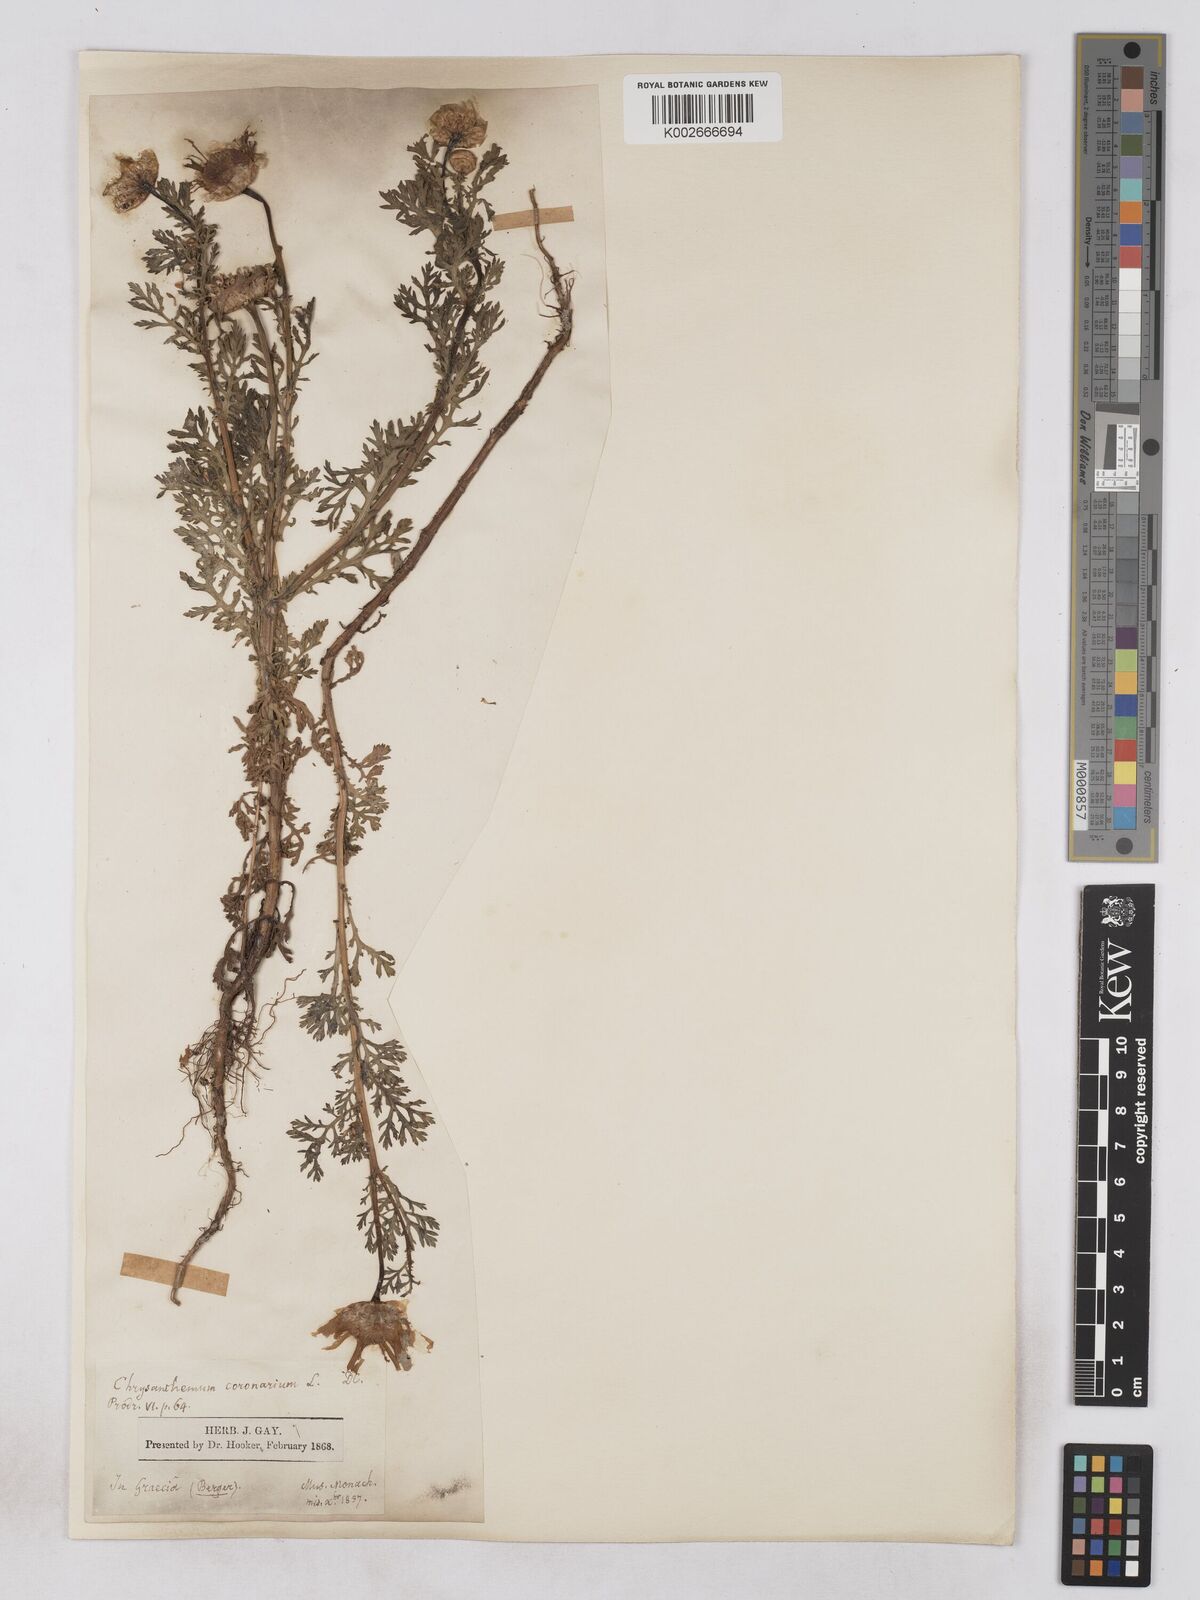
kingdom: Plantae
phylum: Tracheophyta
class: Magnoliopsida
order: Asterales
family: Asteraceae
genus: Glebionis
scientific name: Glebionis coronaria
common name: Crowndaisy
